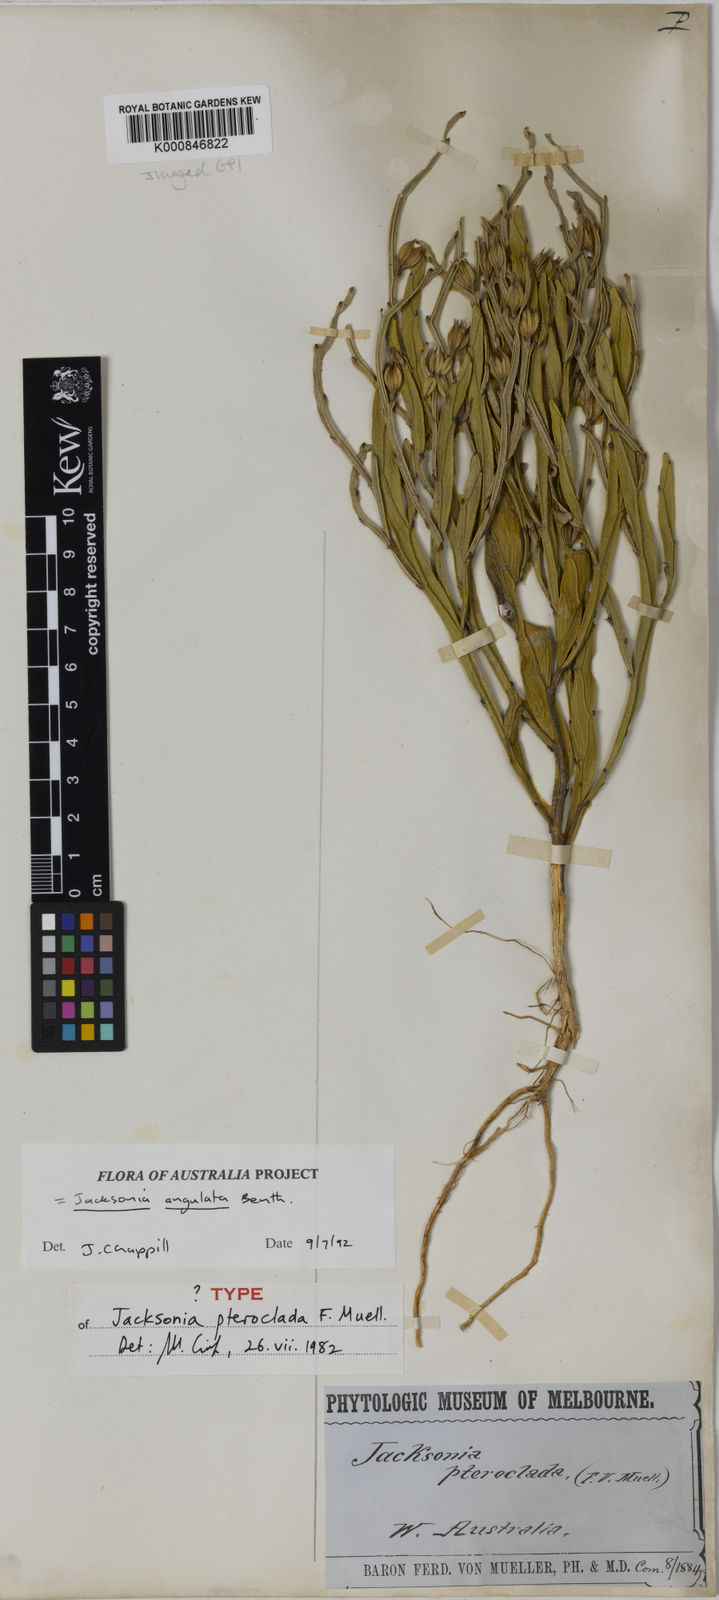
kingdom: Plantae
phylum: Tracheophyta
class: Magnoliopsida
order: Fabales
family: Fabaceae
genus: Jacksonia
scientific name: Jacksonia angulata
